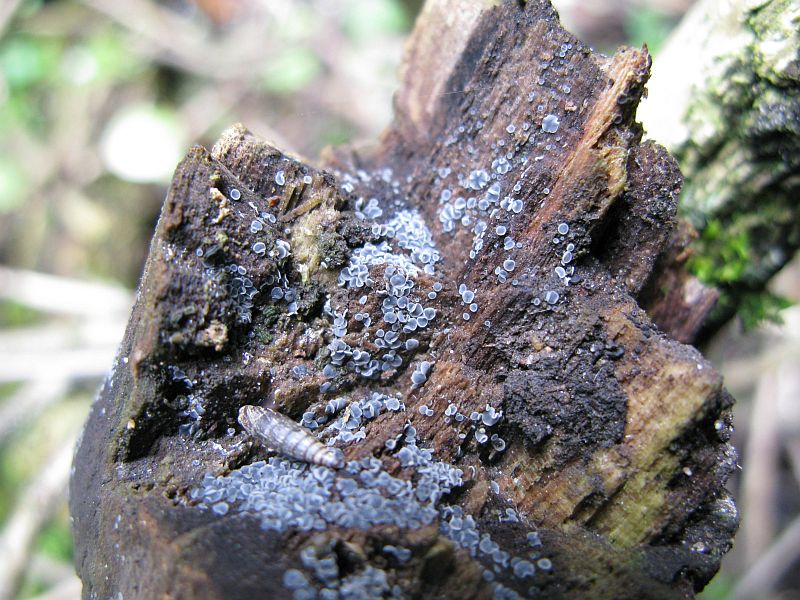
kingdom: Fungi
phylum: Ascomycota
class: Leotiomycetes
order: Helotiales
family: Mollisiaceae
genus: Mollisia
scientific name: Mollisia cinerea
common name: almindelig gråskive
